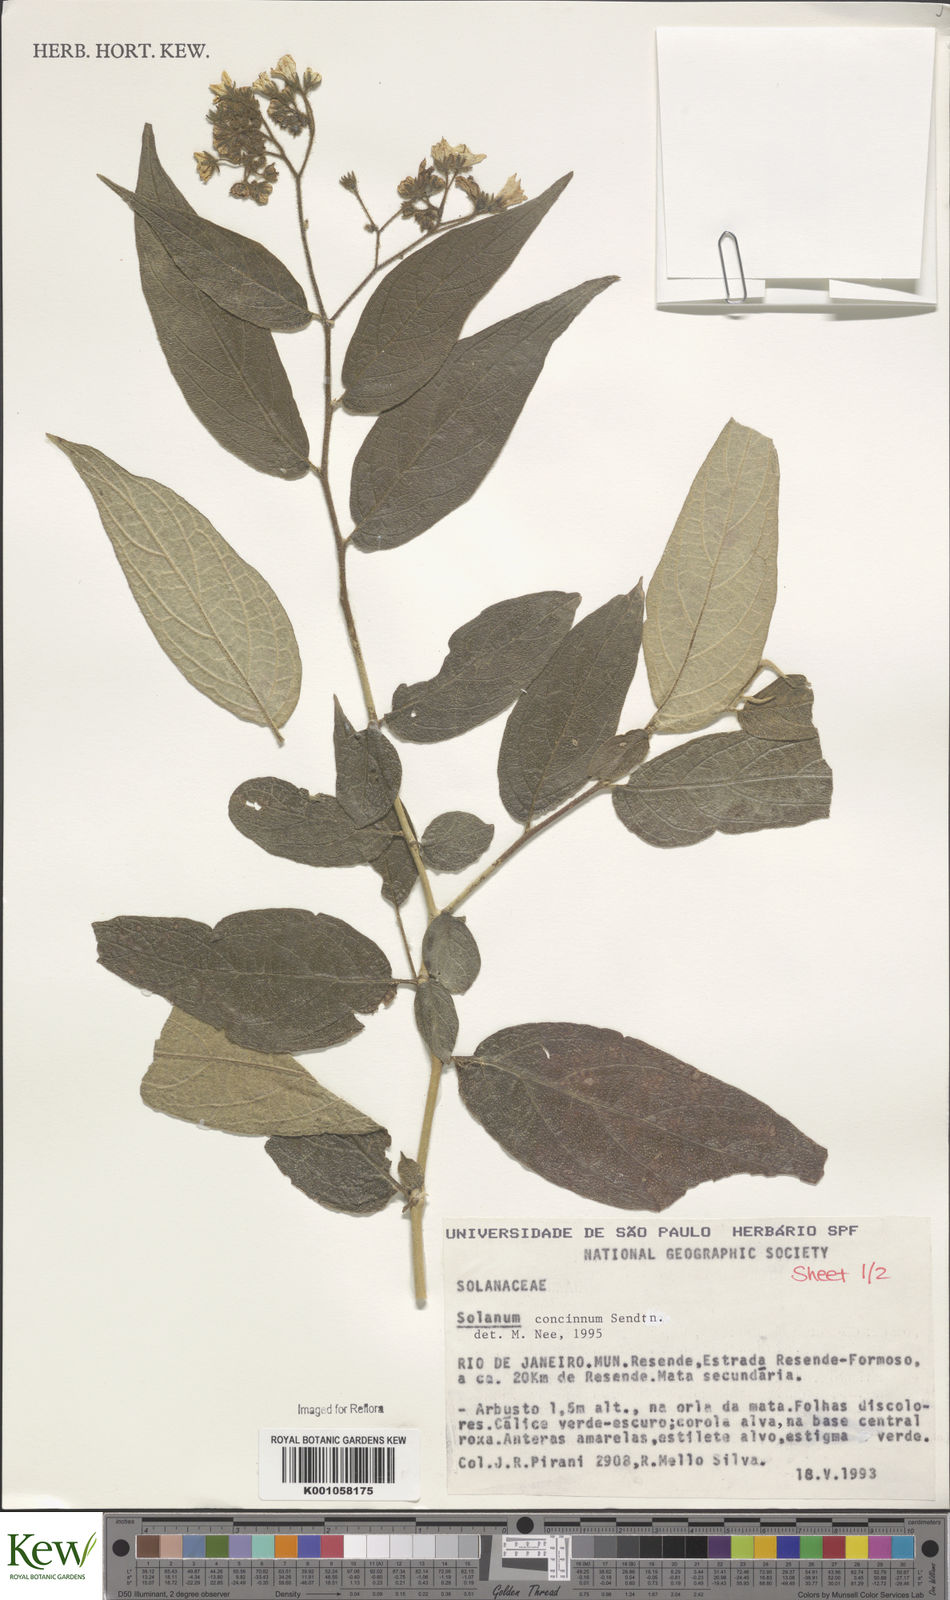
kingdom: Plantae
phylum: Tracheophyta
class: Magnoliopsida
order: Solanales
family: Solanaceae
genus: Solanum
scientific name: Solanum concinnum
